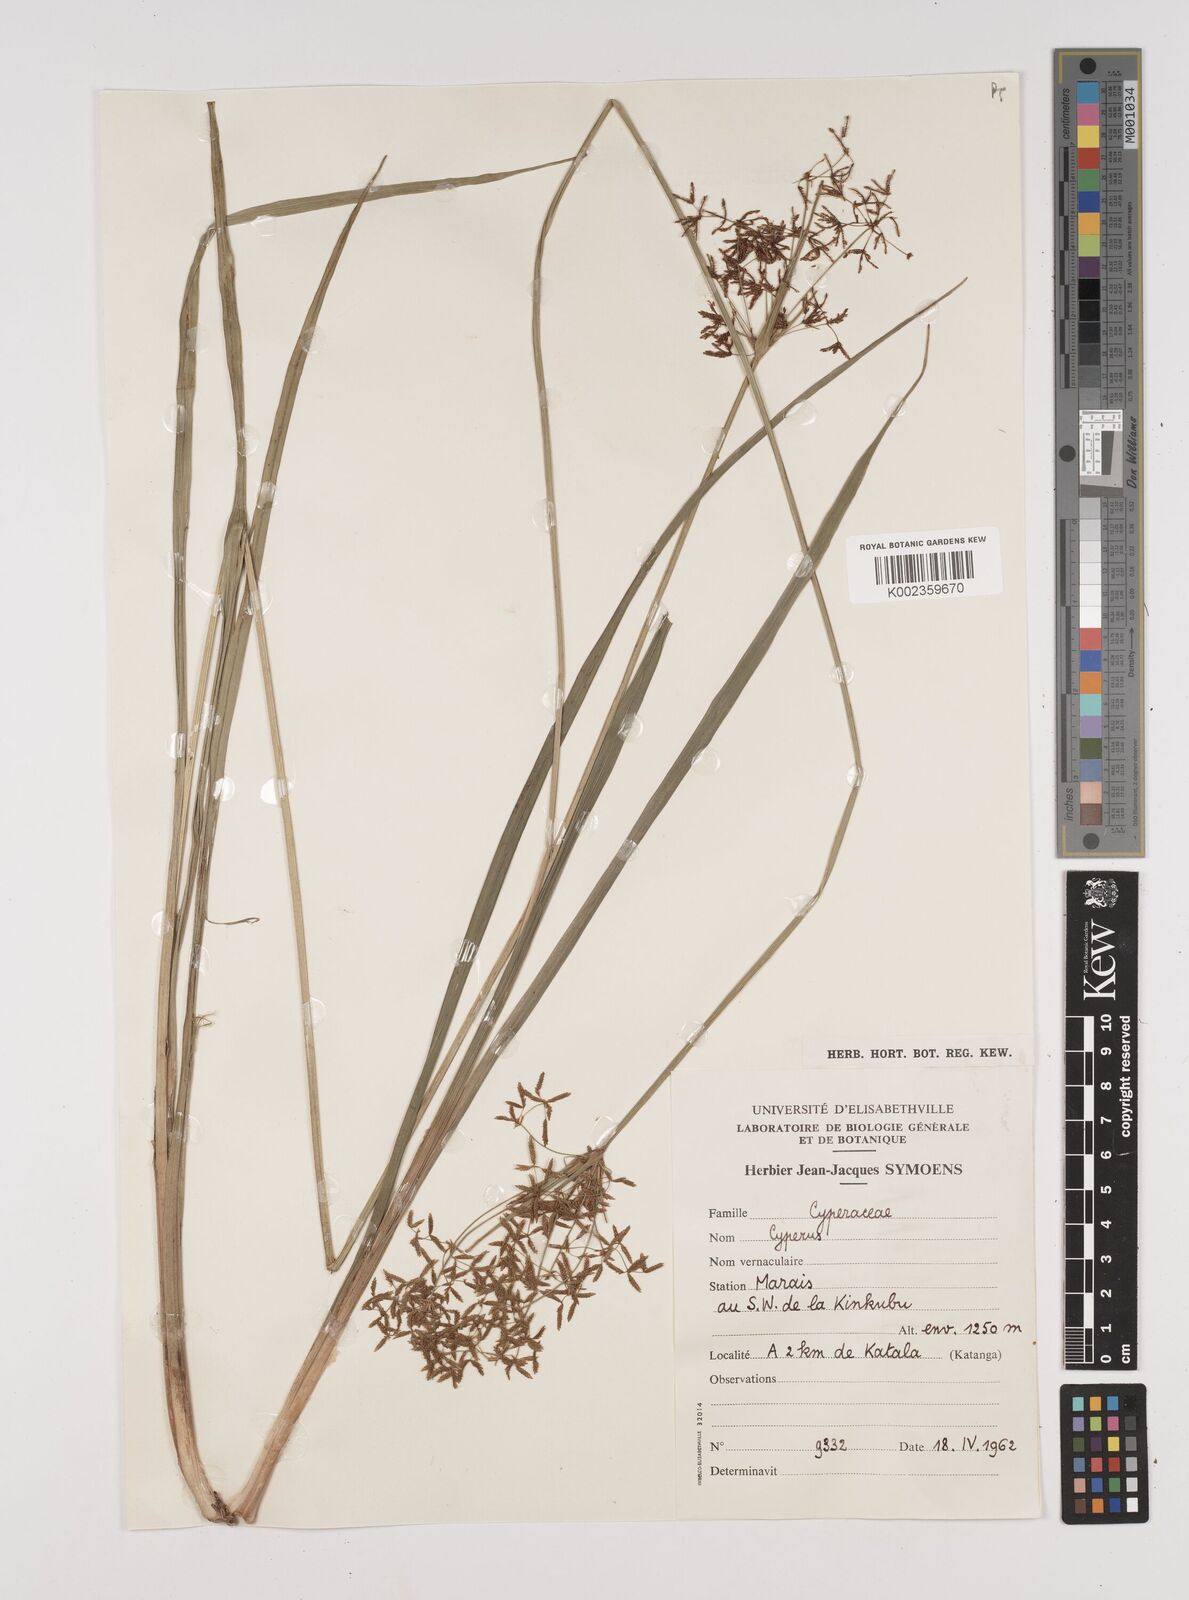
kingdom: Plantae
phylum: Tracheophyta
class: Liliopsida
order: Poales
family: Cyperaceae
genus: Cyperus
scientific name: Cyperus
